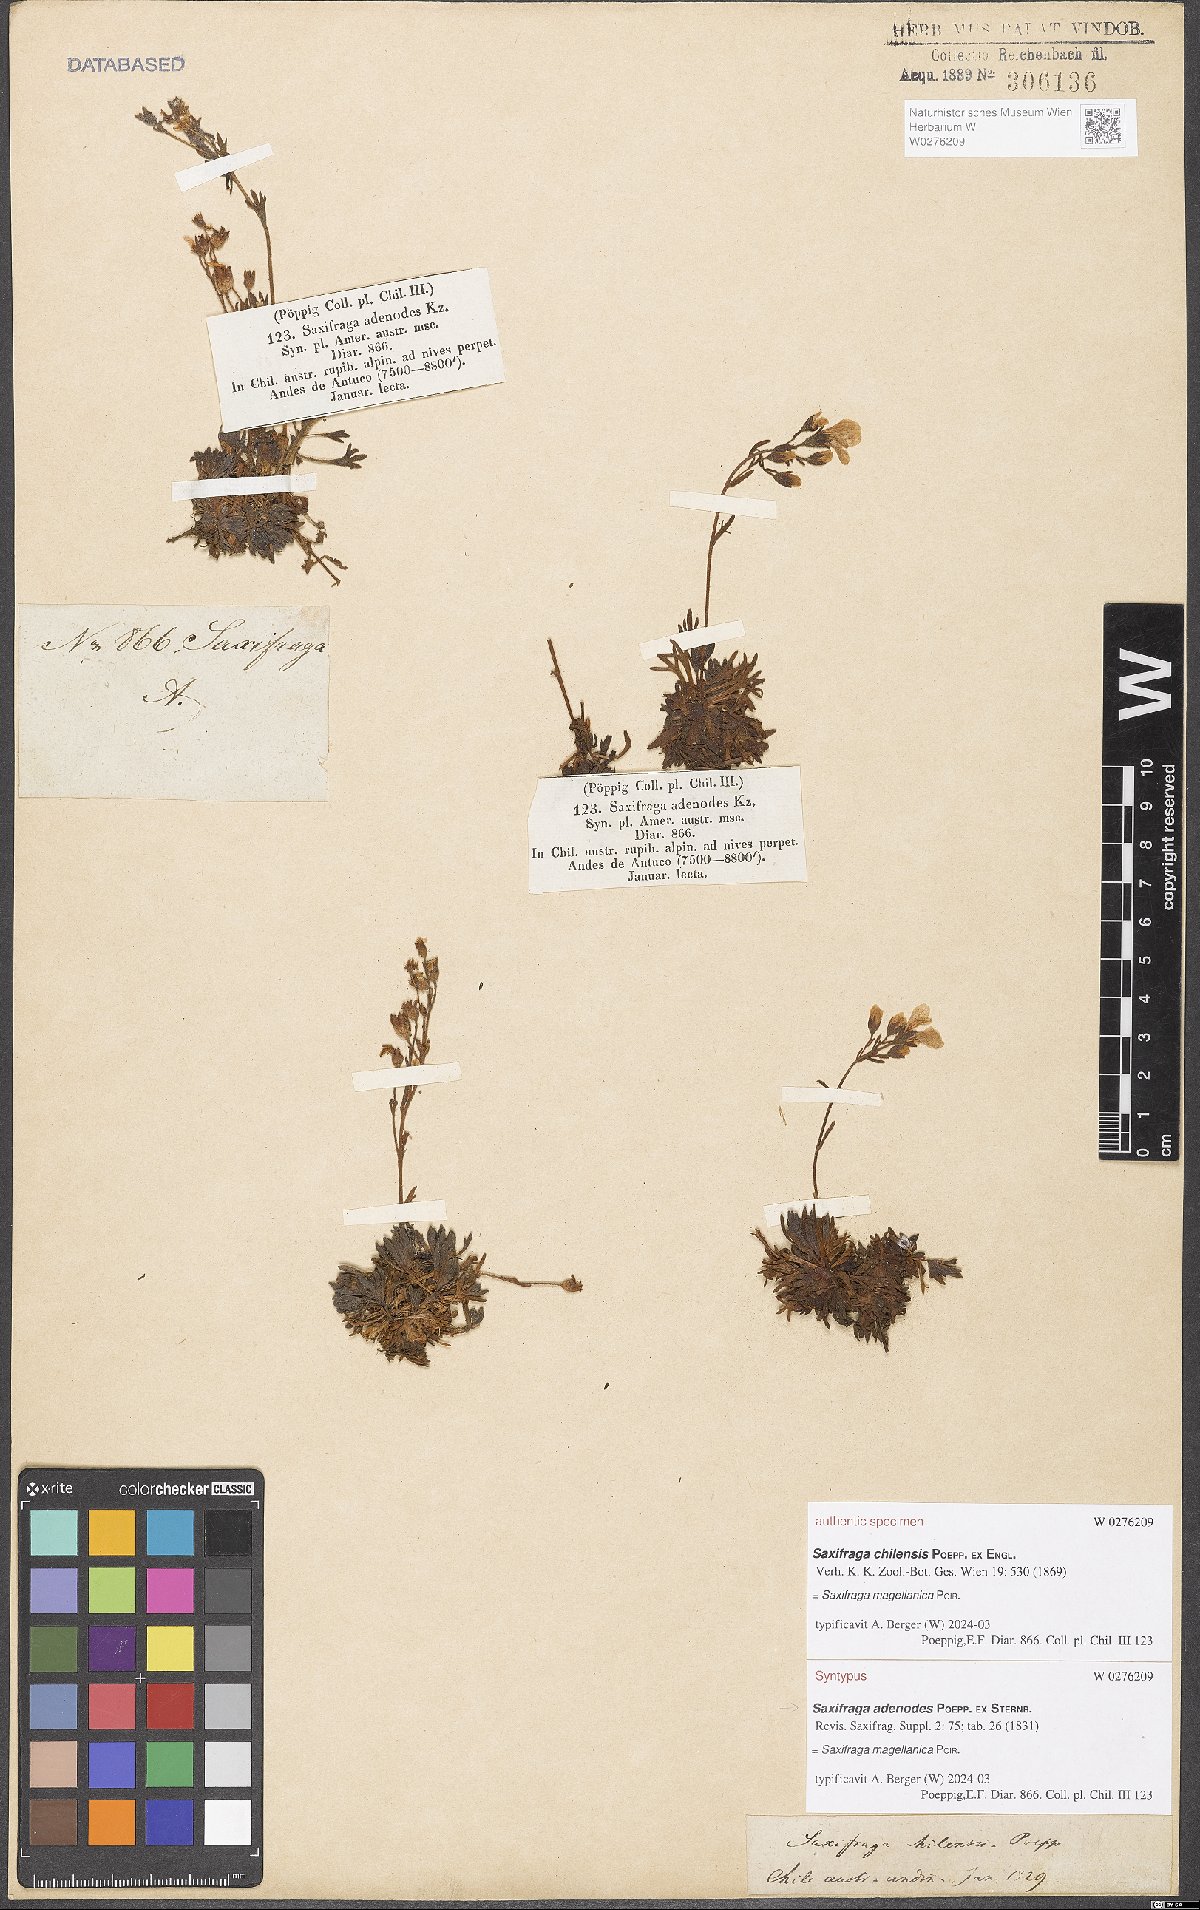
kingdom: Plantae
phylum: Tracheophyta
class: Magnoliopsida
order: Saxifragales
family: Saxifragaceae
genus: Saxifraga
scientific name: Saxifraga magellanica
